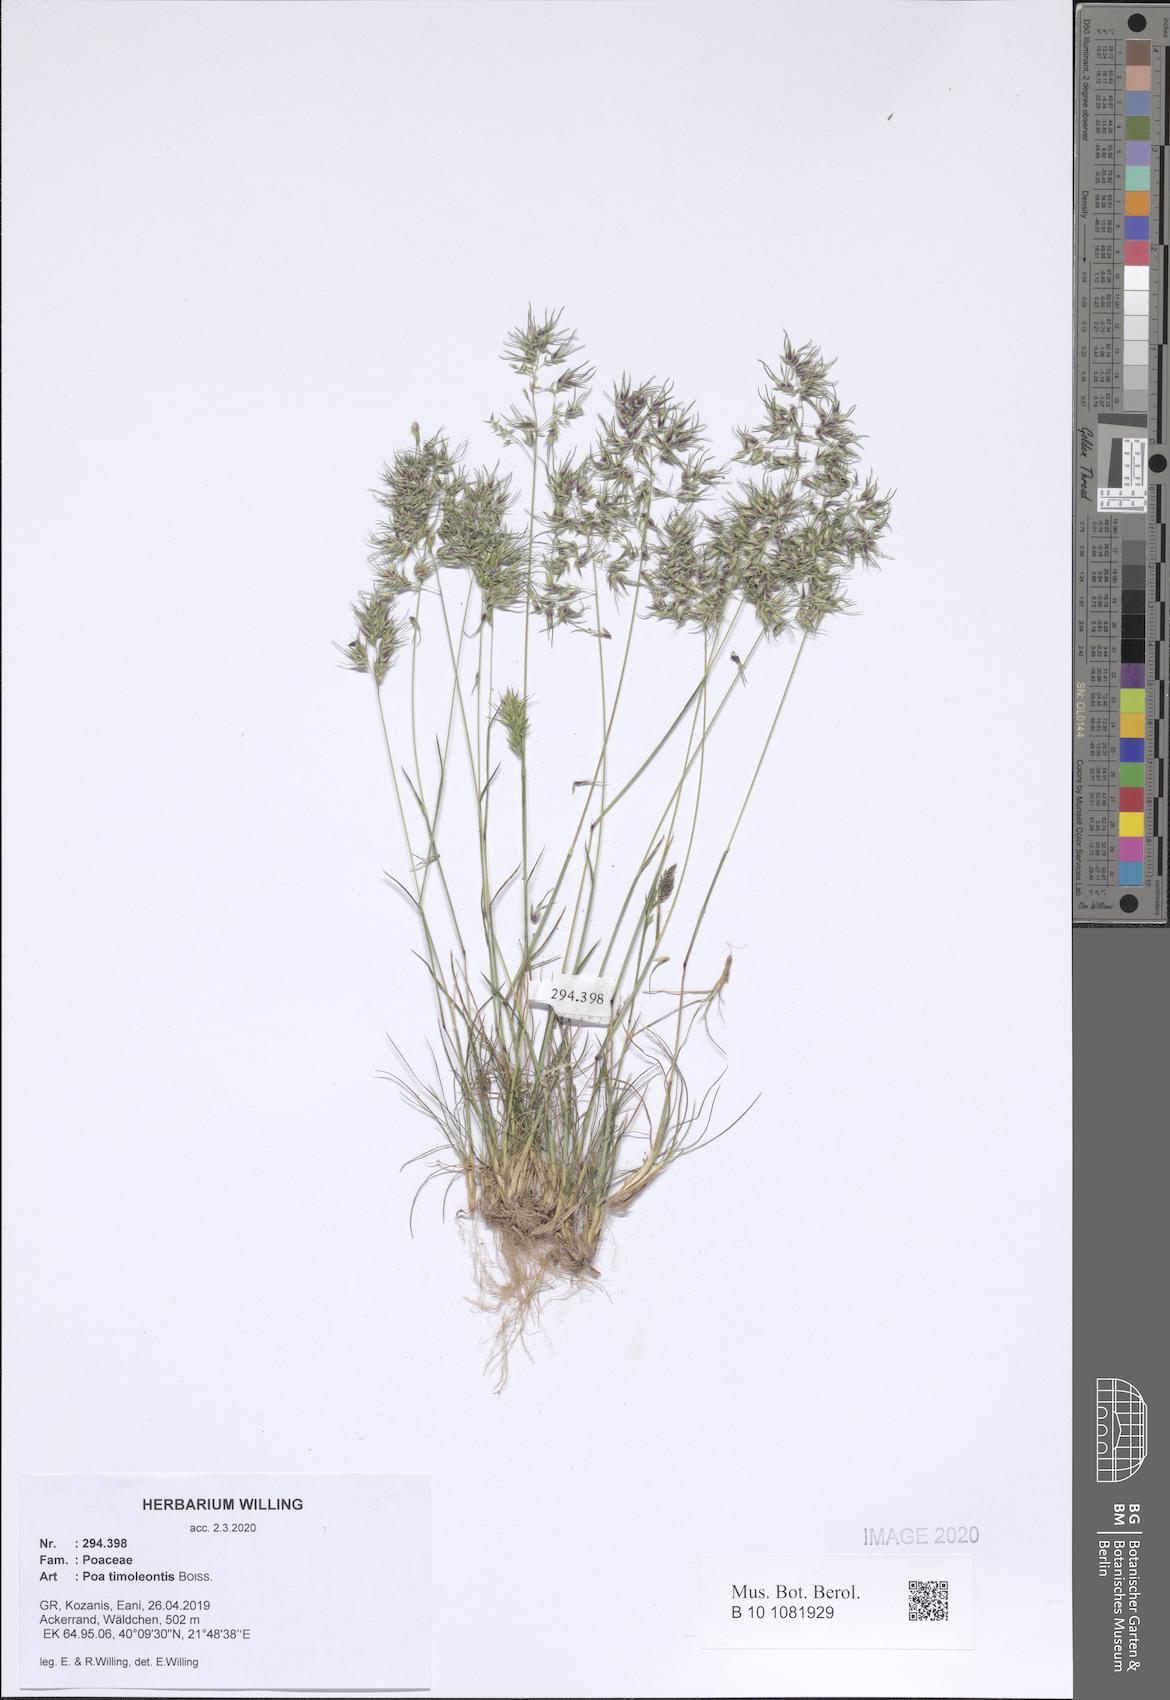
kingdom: Plantae
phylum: Tracheophyta
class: Liliopsida
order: Poales
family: Poaceae
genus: Poa
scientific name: Poa timoleontis
